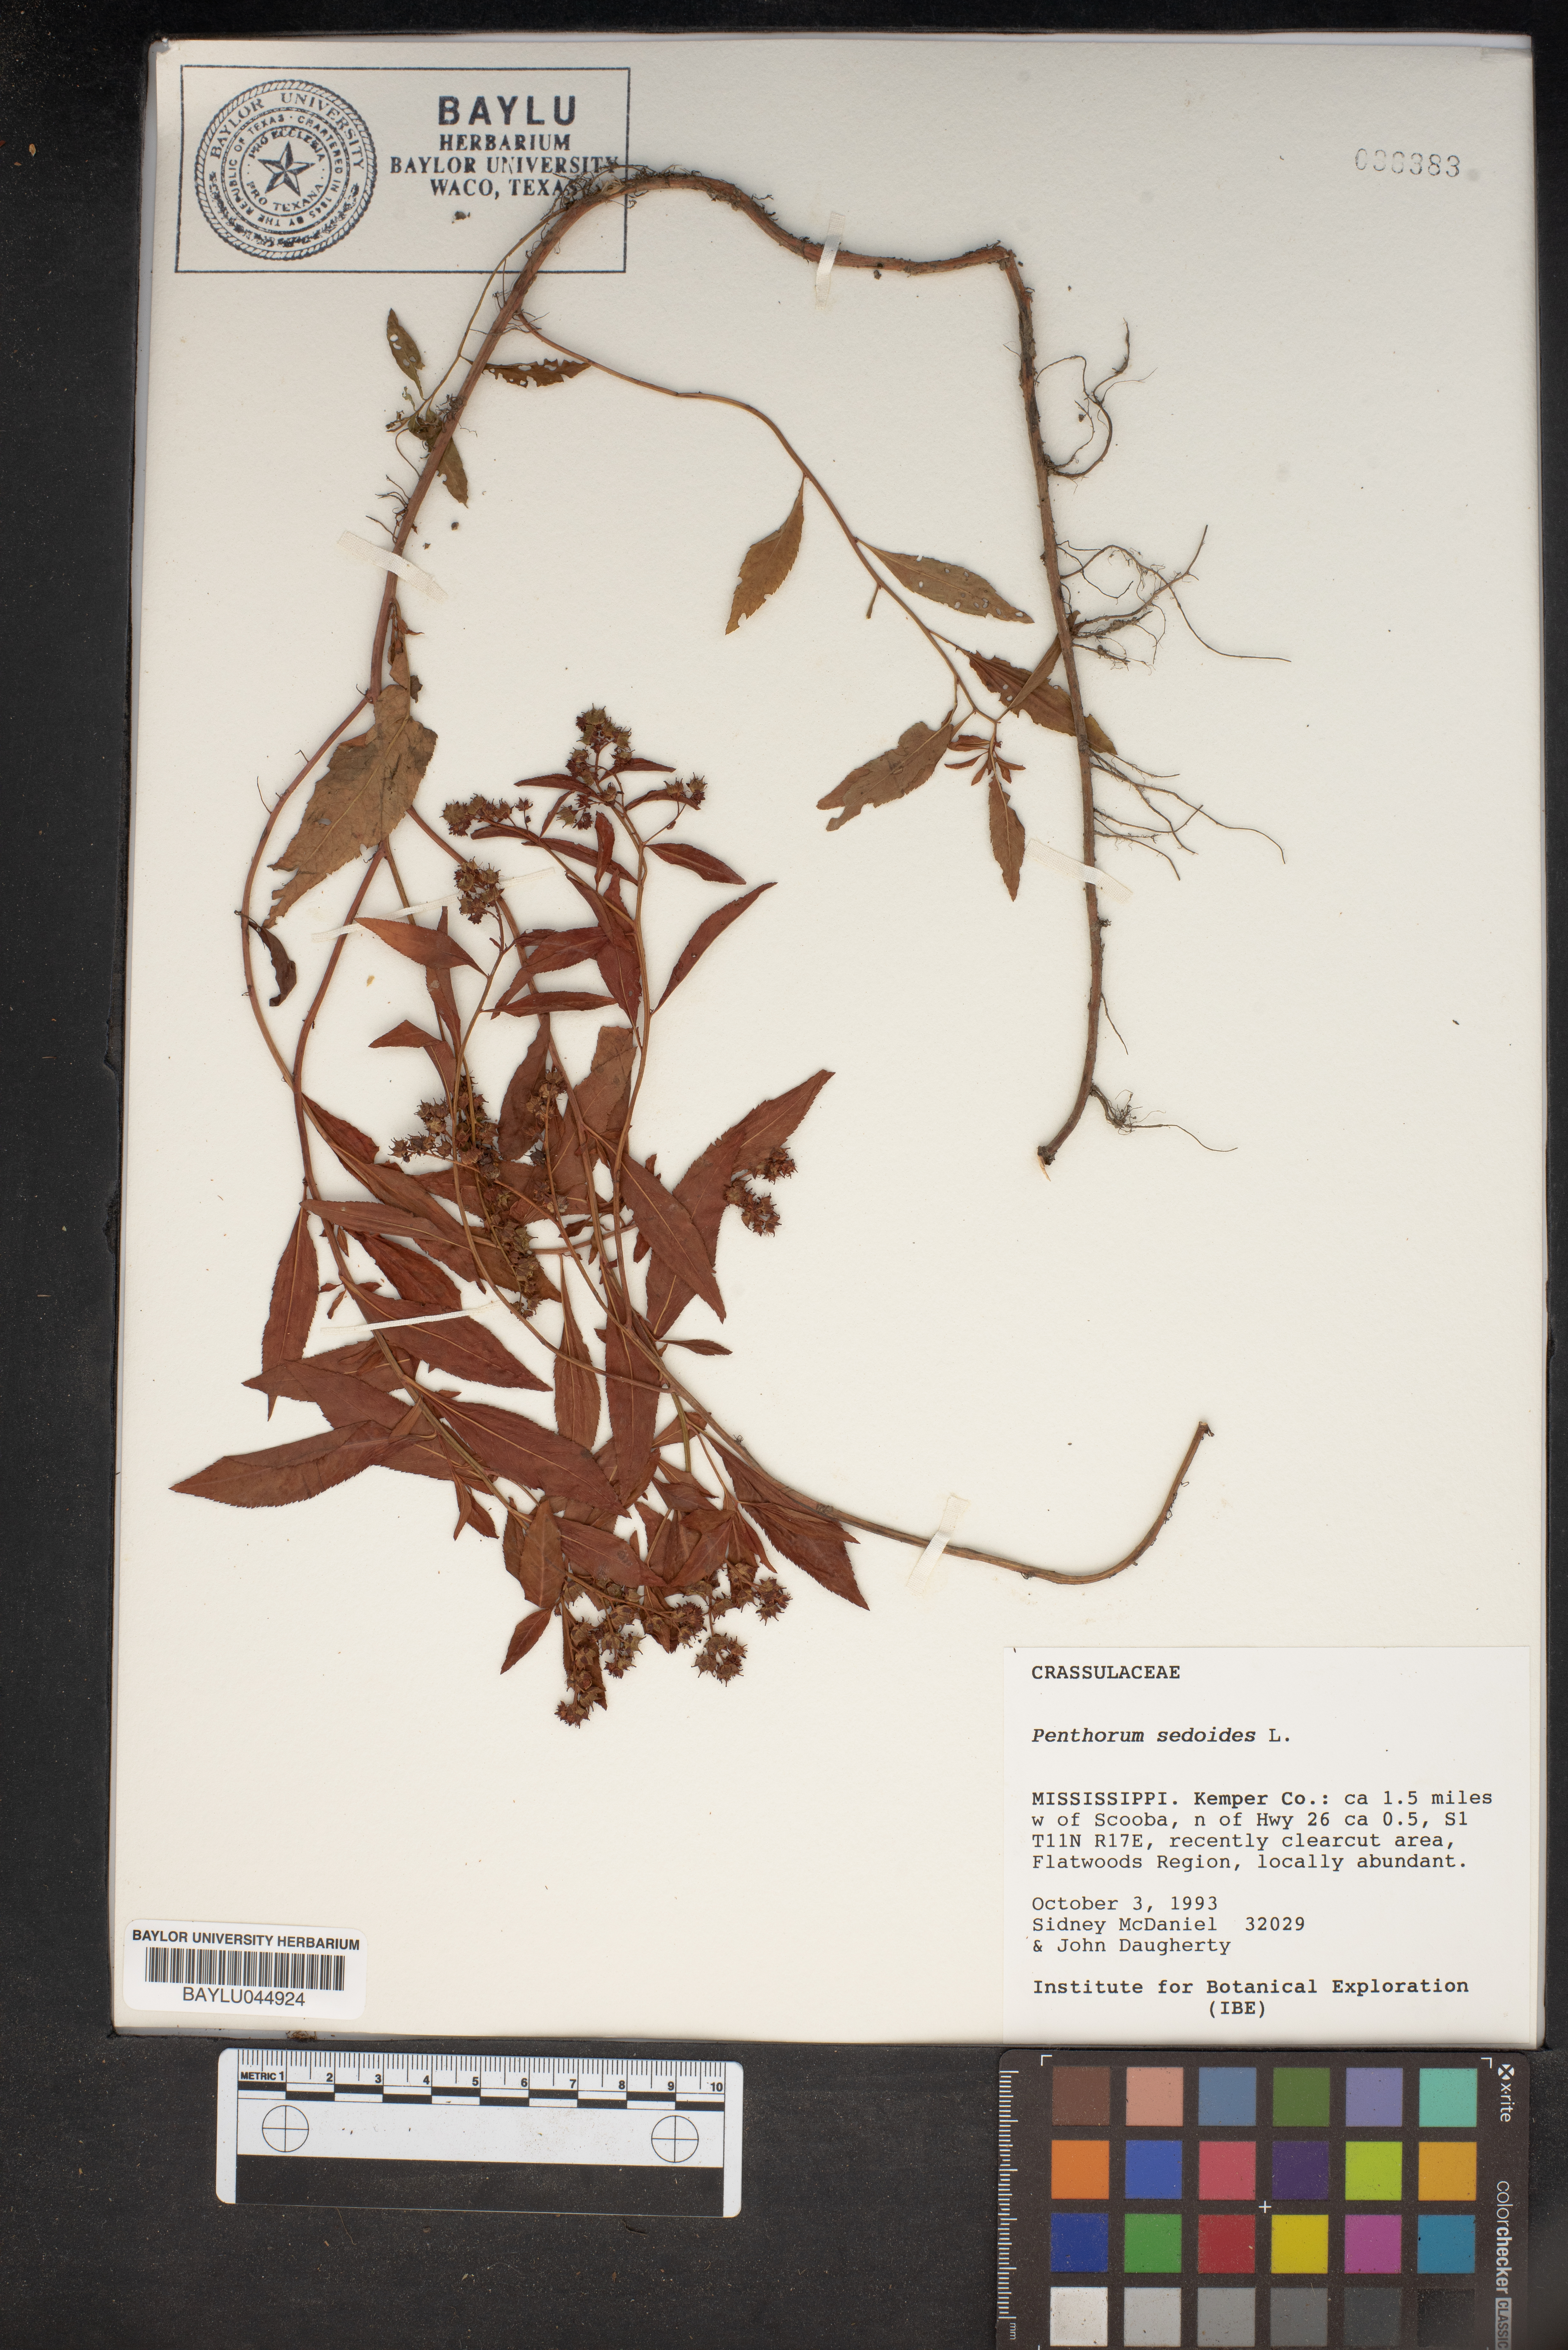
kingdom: Plantae
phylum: Tracheophyta
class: Magnoliopsida
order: Saxifragales
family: Penthoraceae
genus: Penthorum
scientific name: Penthorum sedoides
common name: Ditch stonecrop
